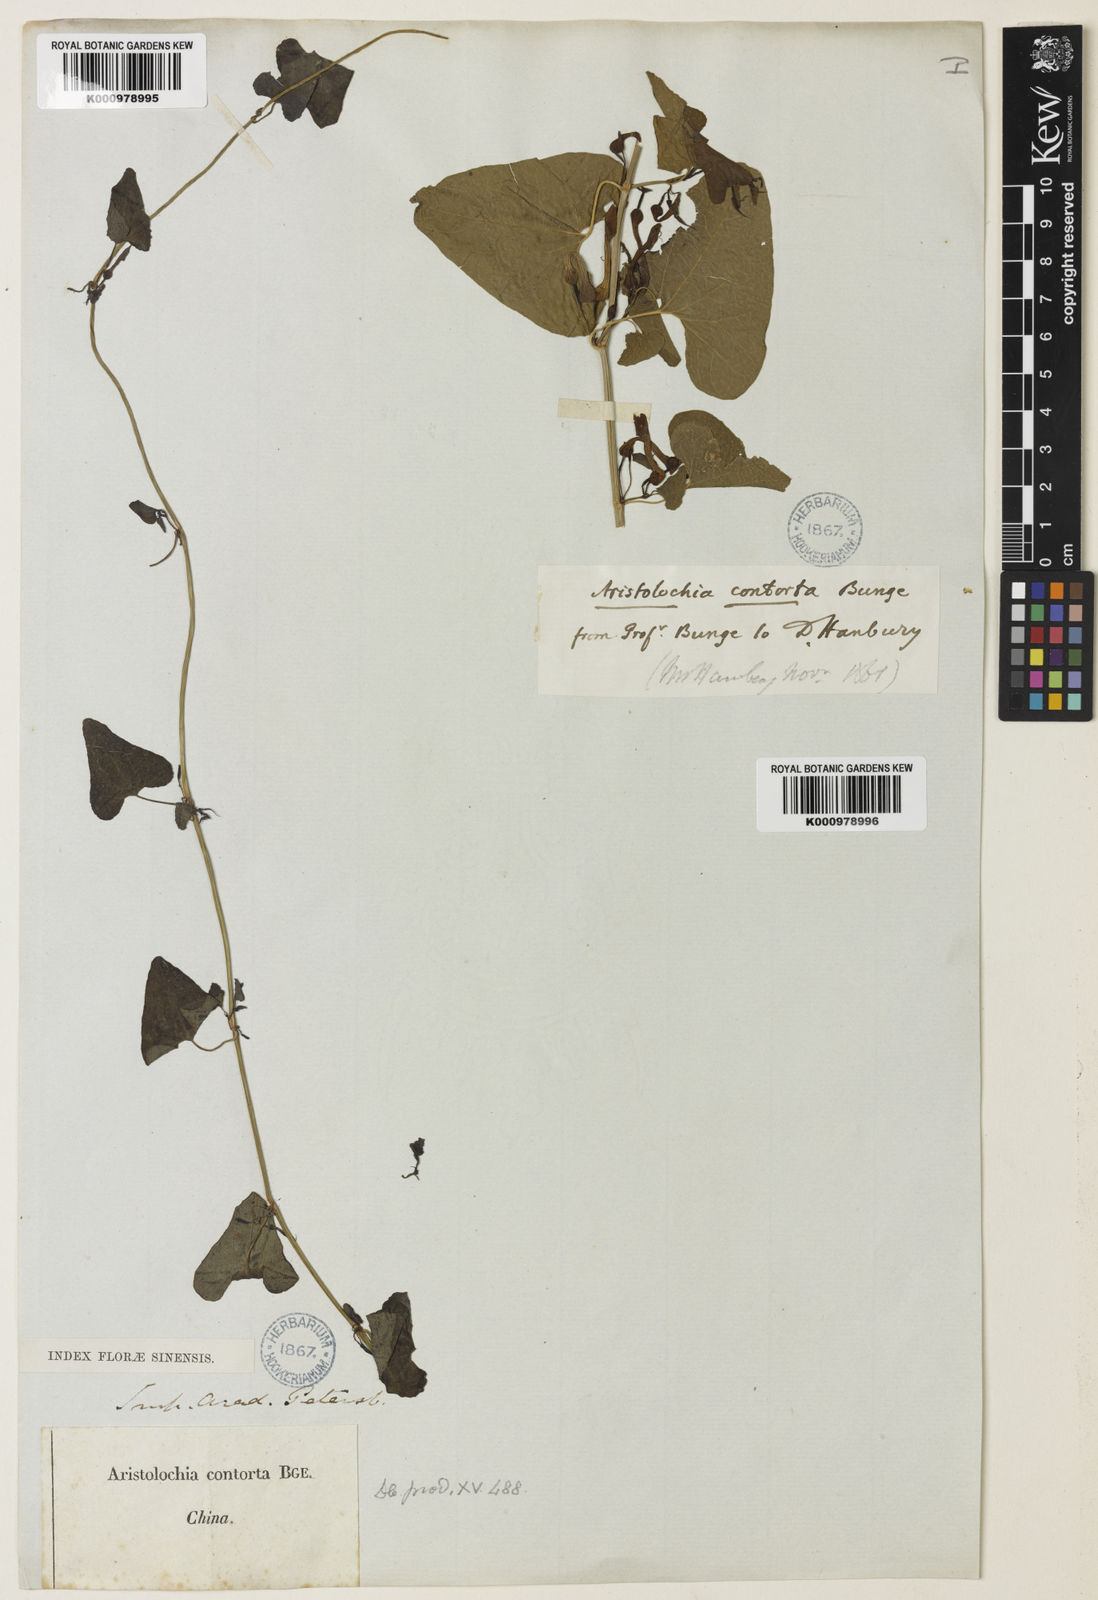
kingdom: Plantae
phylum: Tracheophyta
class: Magnoliopsida
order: Piperales
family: Aristolochiaceae
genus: Aristolochia
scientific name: Aristolochia contorta
